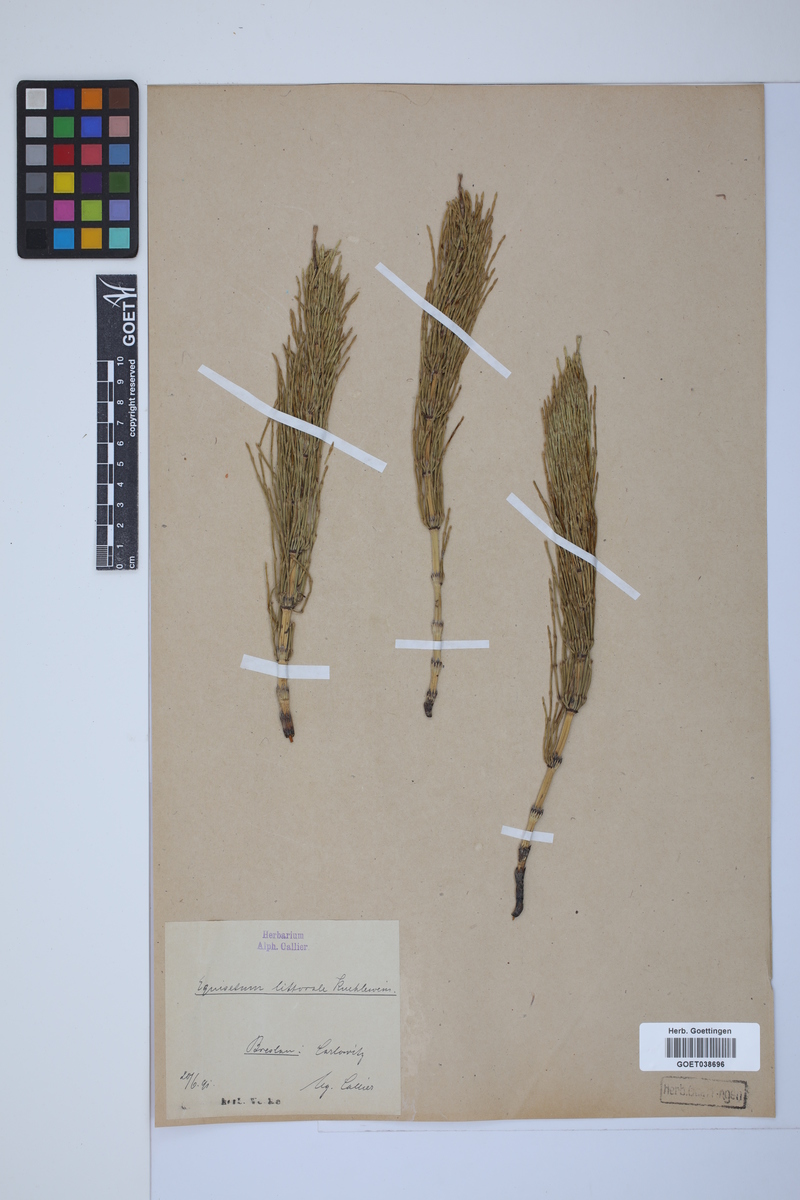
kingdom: Plantae
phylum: Tracheophyta
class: Polypodiopsida
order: Equisetales
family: Equisetaceae
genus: Equisetum
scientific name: Equisetum litorale
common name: Littoral horsetail
